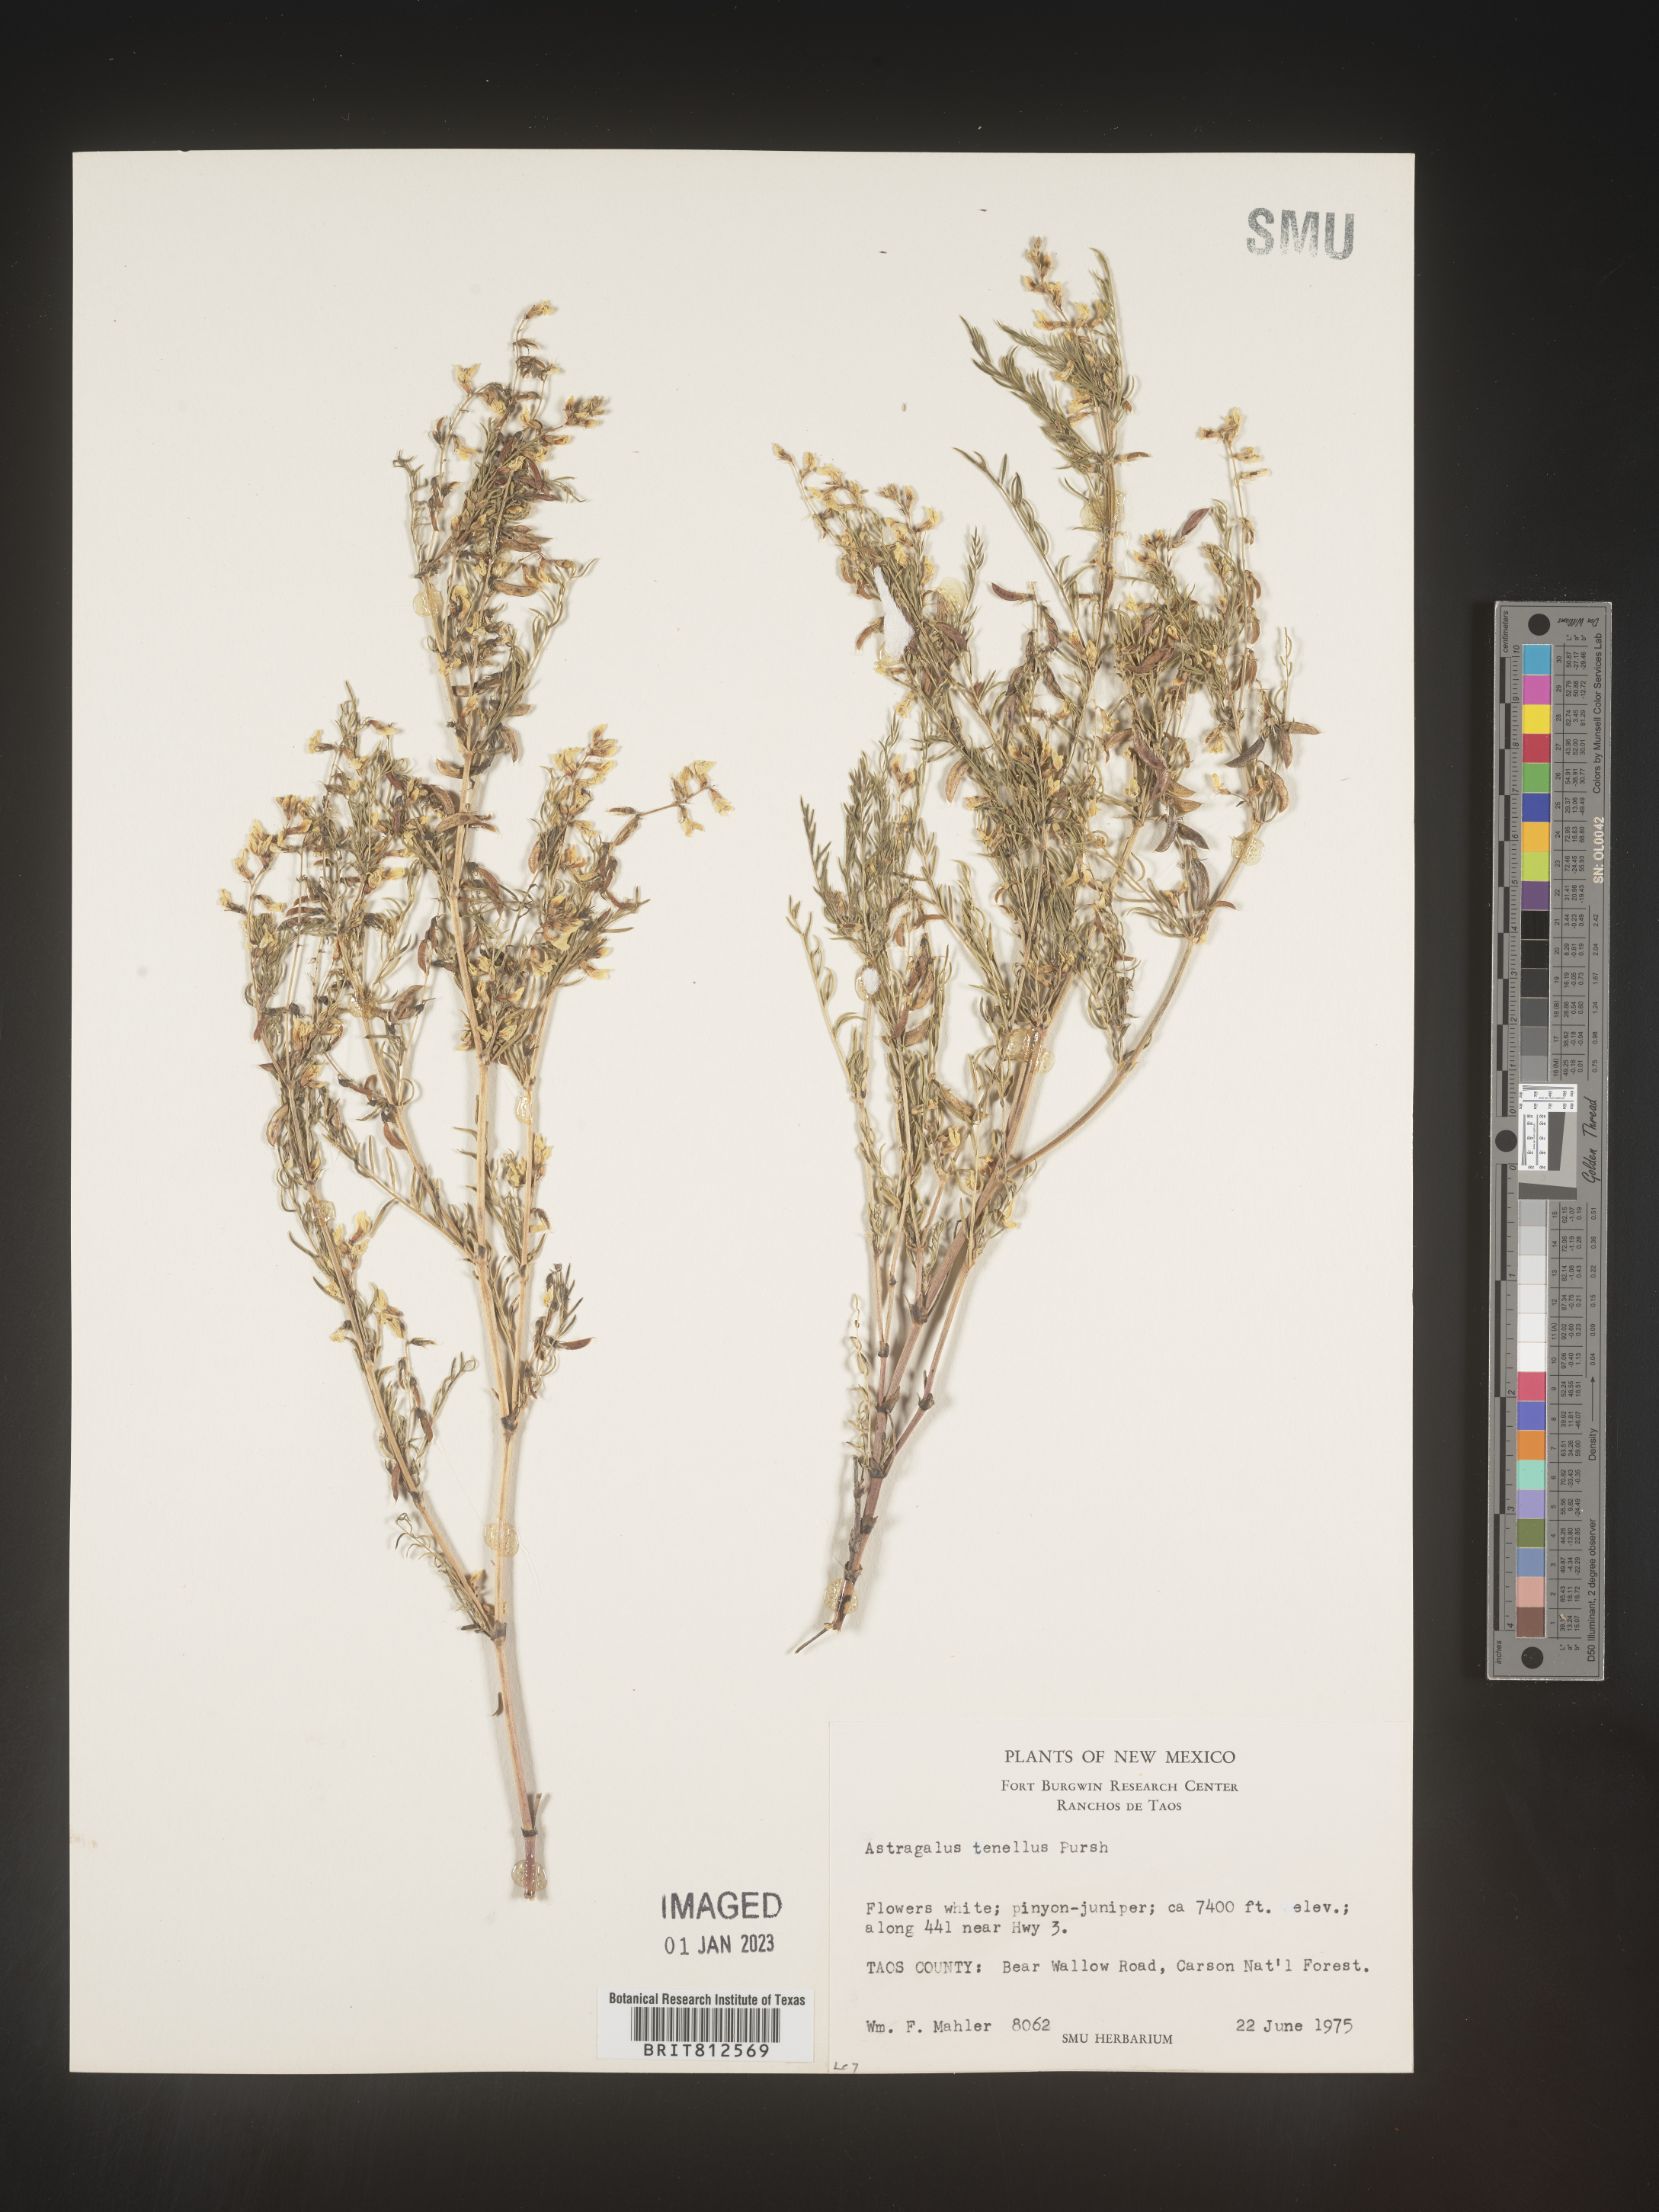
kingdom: Plantae
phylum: Tracheophyta
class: Magnoliopsida
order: Fabales
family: Fabaceae
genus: Astragalus
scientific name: Astragalus
